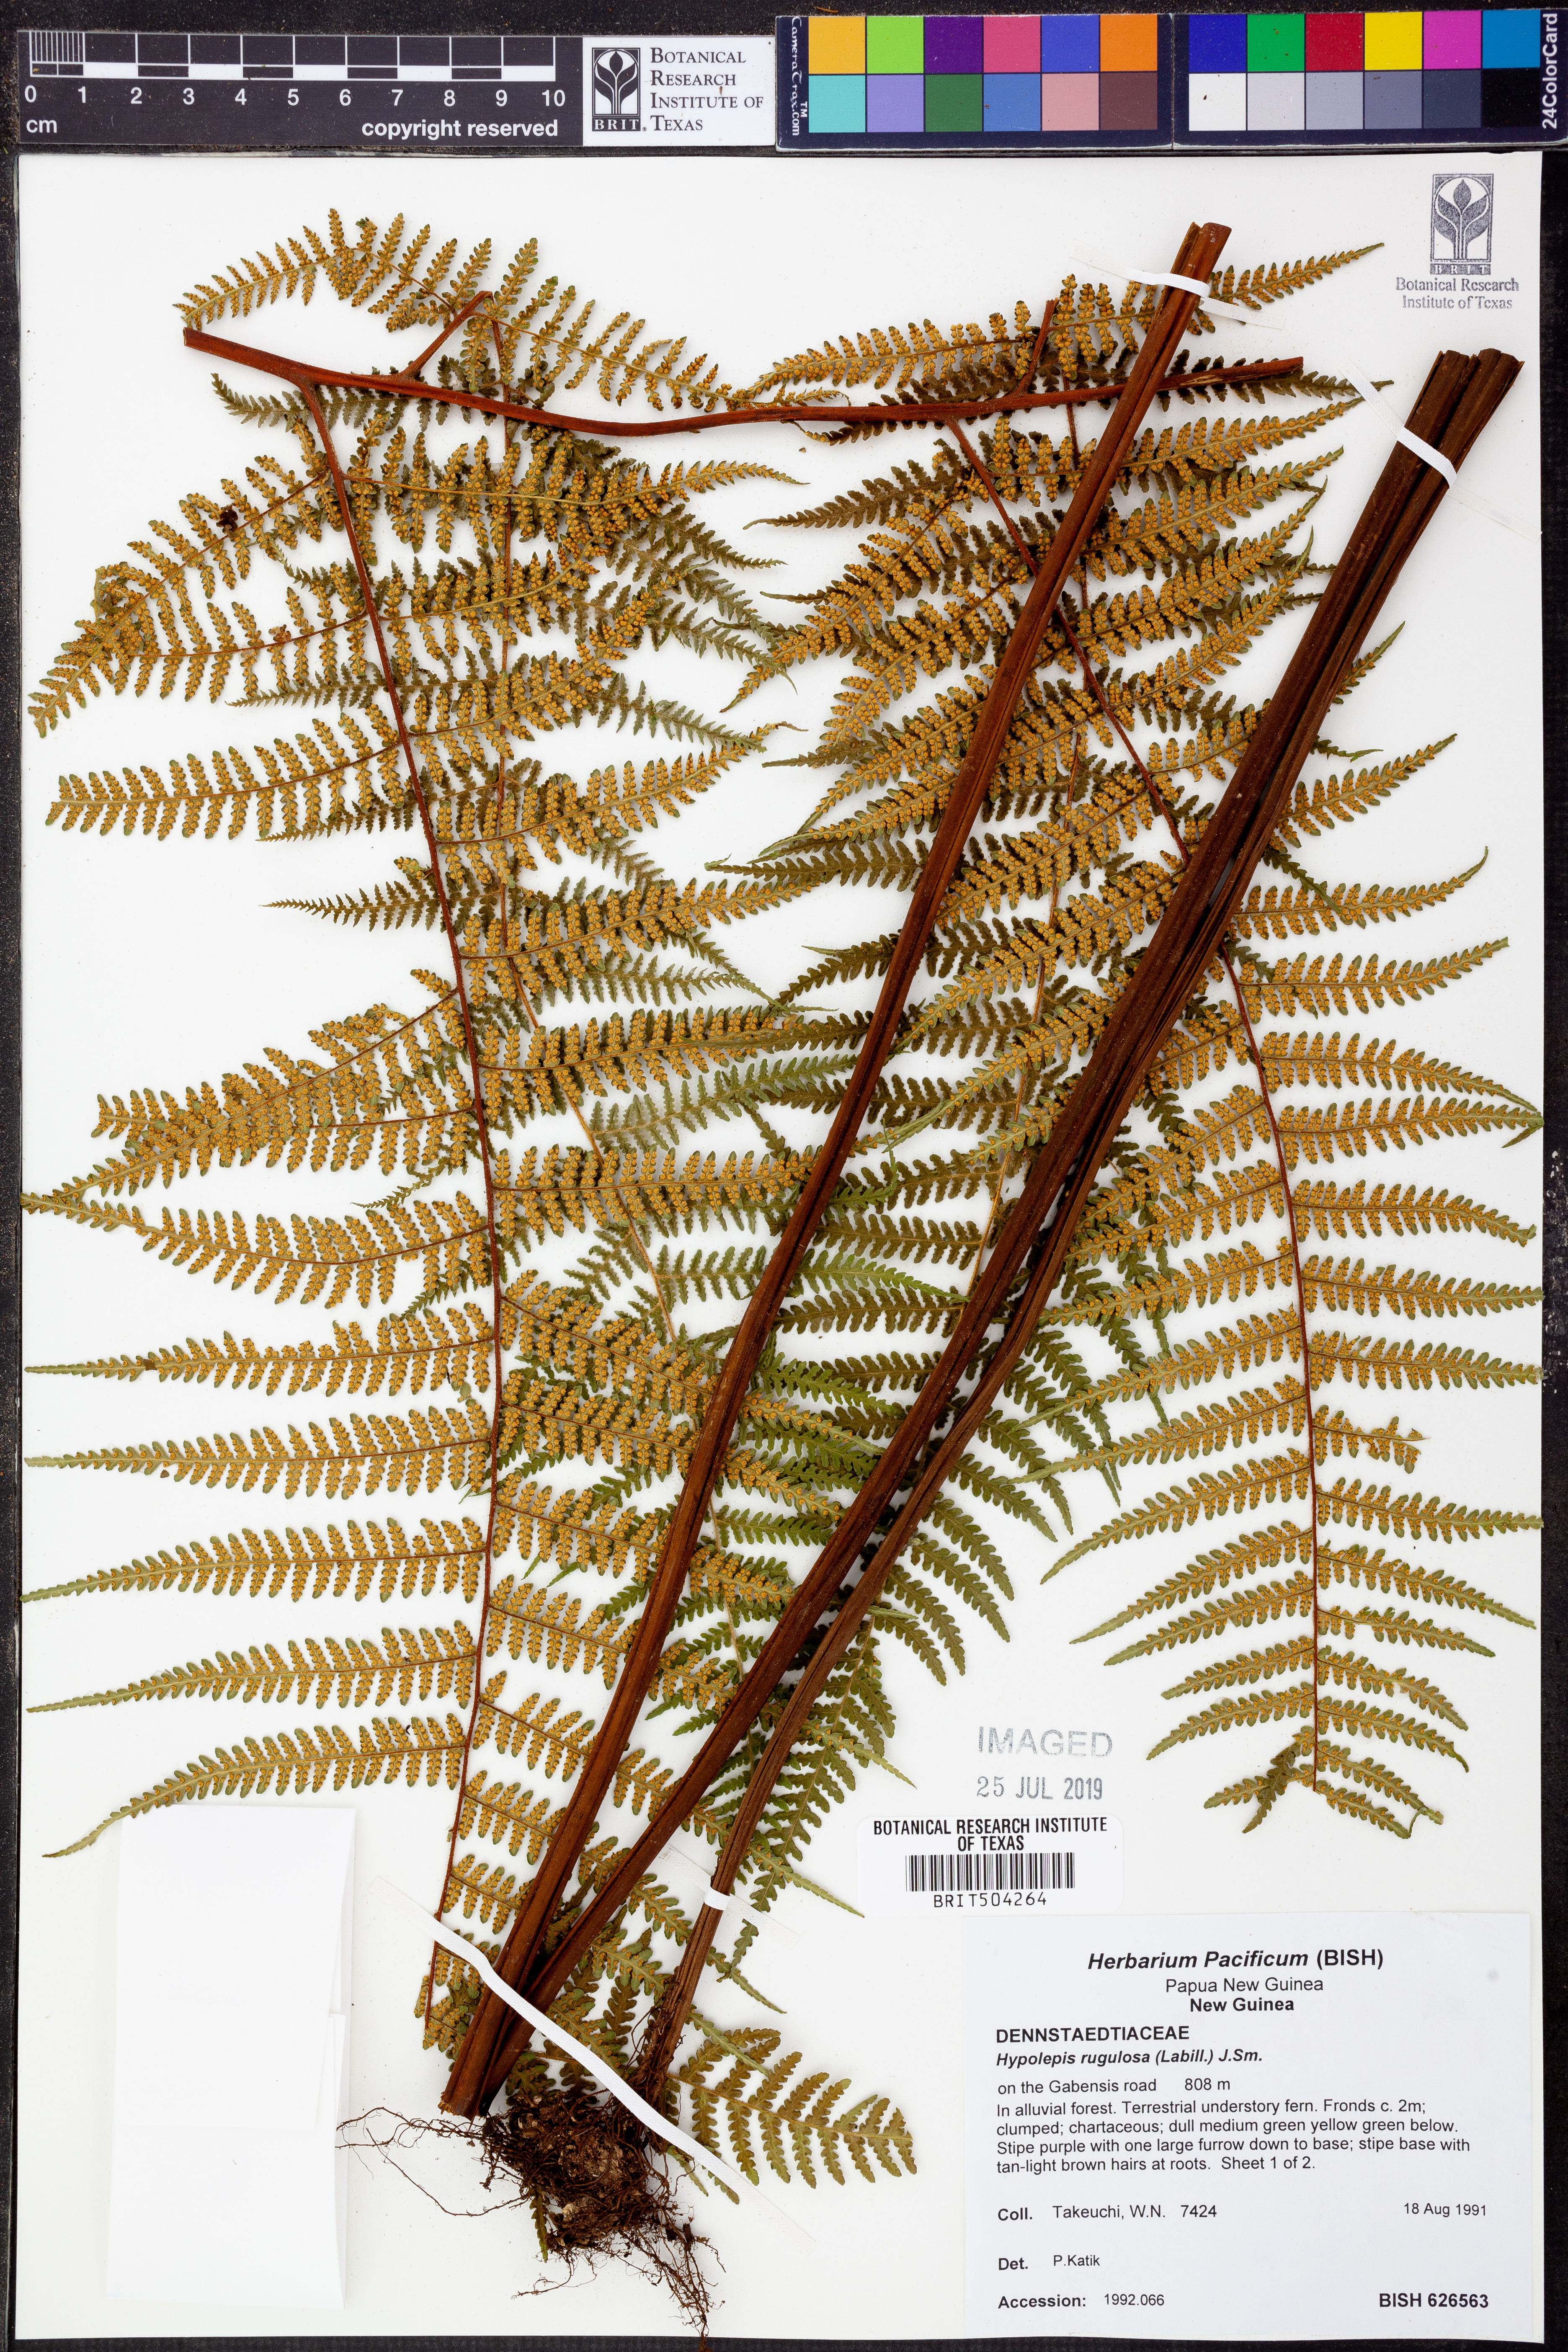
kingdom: Plantae
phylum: Tracheophyta
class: Polypodiopsida
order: Polypodiales
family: Dennstaedtiaceae
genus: Hypolepis
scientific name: Hypolepis rugosula
